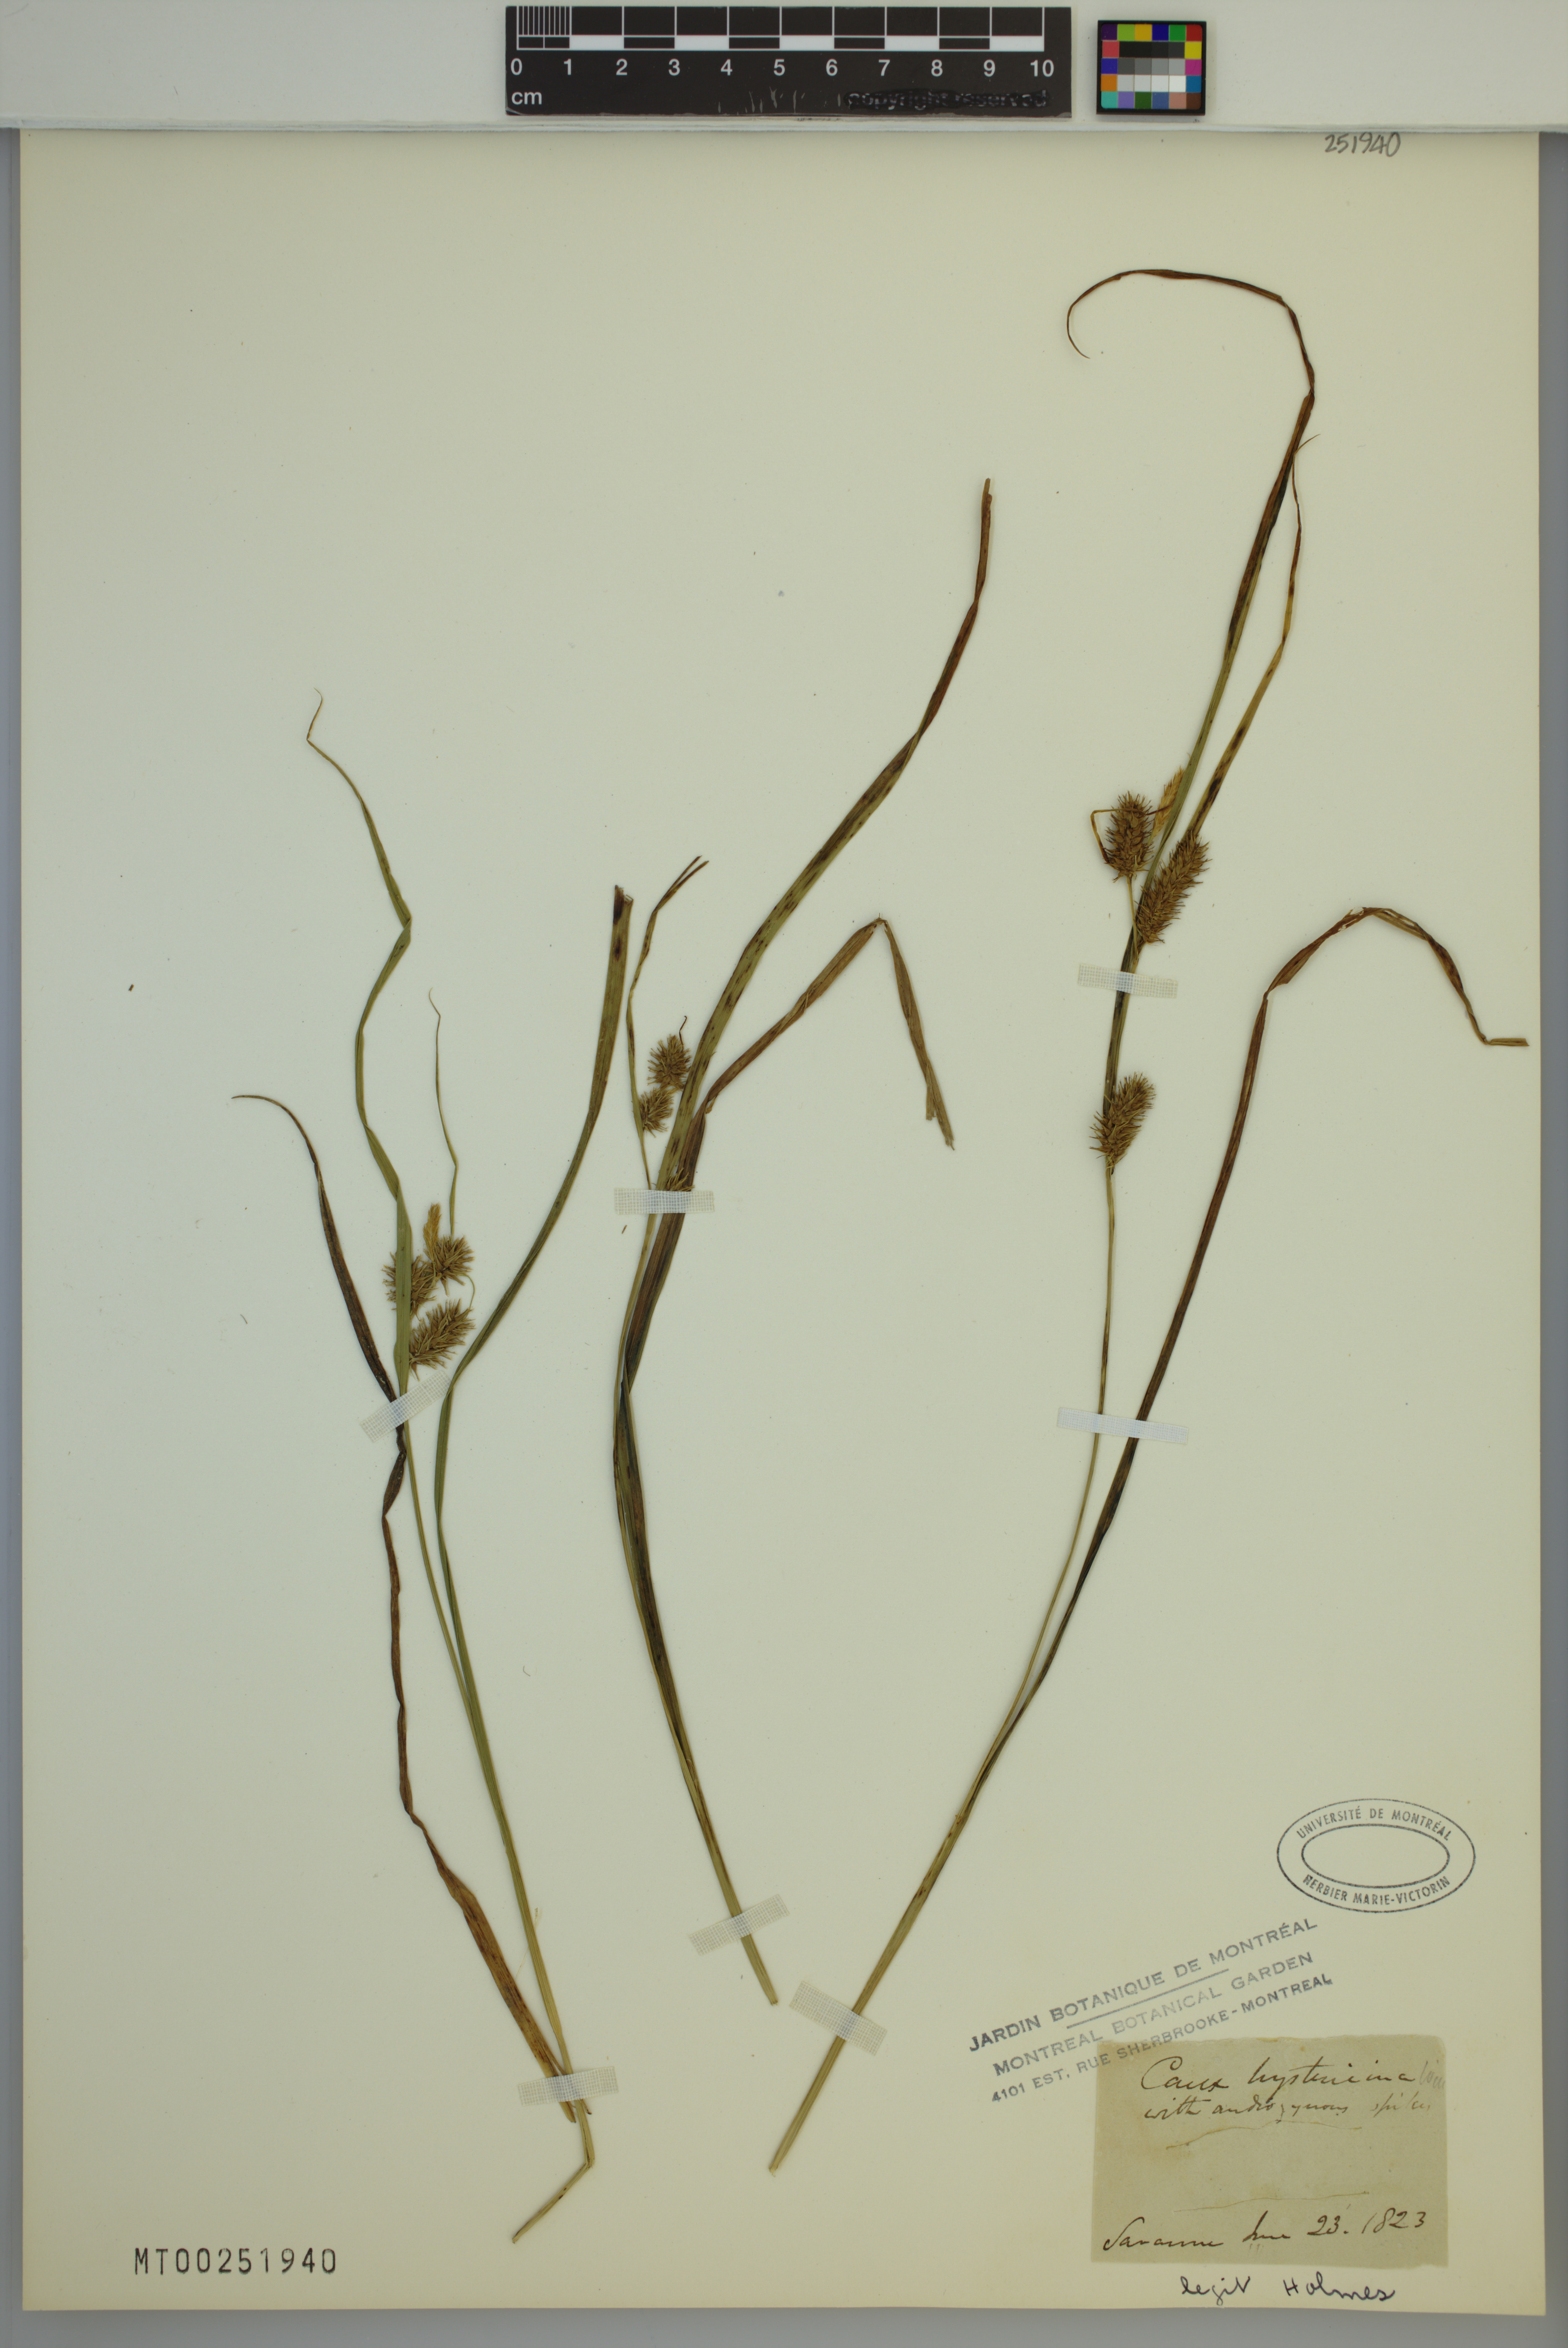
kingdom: Plantae
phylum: Tracheophyta
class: Liliopsida
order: Poales
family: Cyperaceae
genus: Carex
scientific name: Carex hystericina
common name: Bottlebrush sedge
